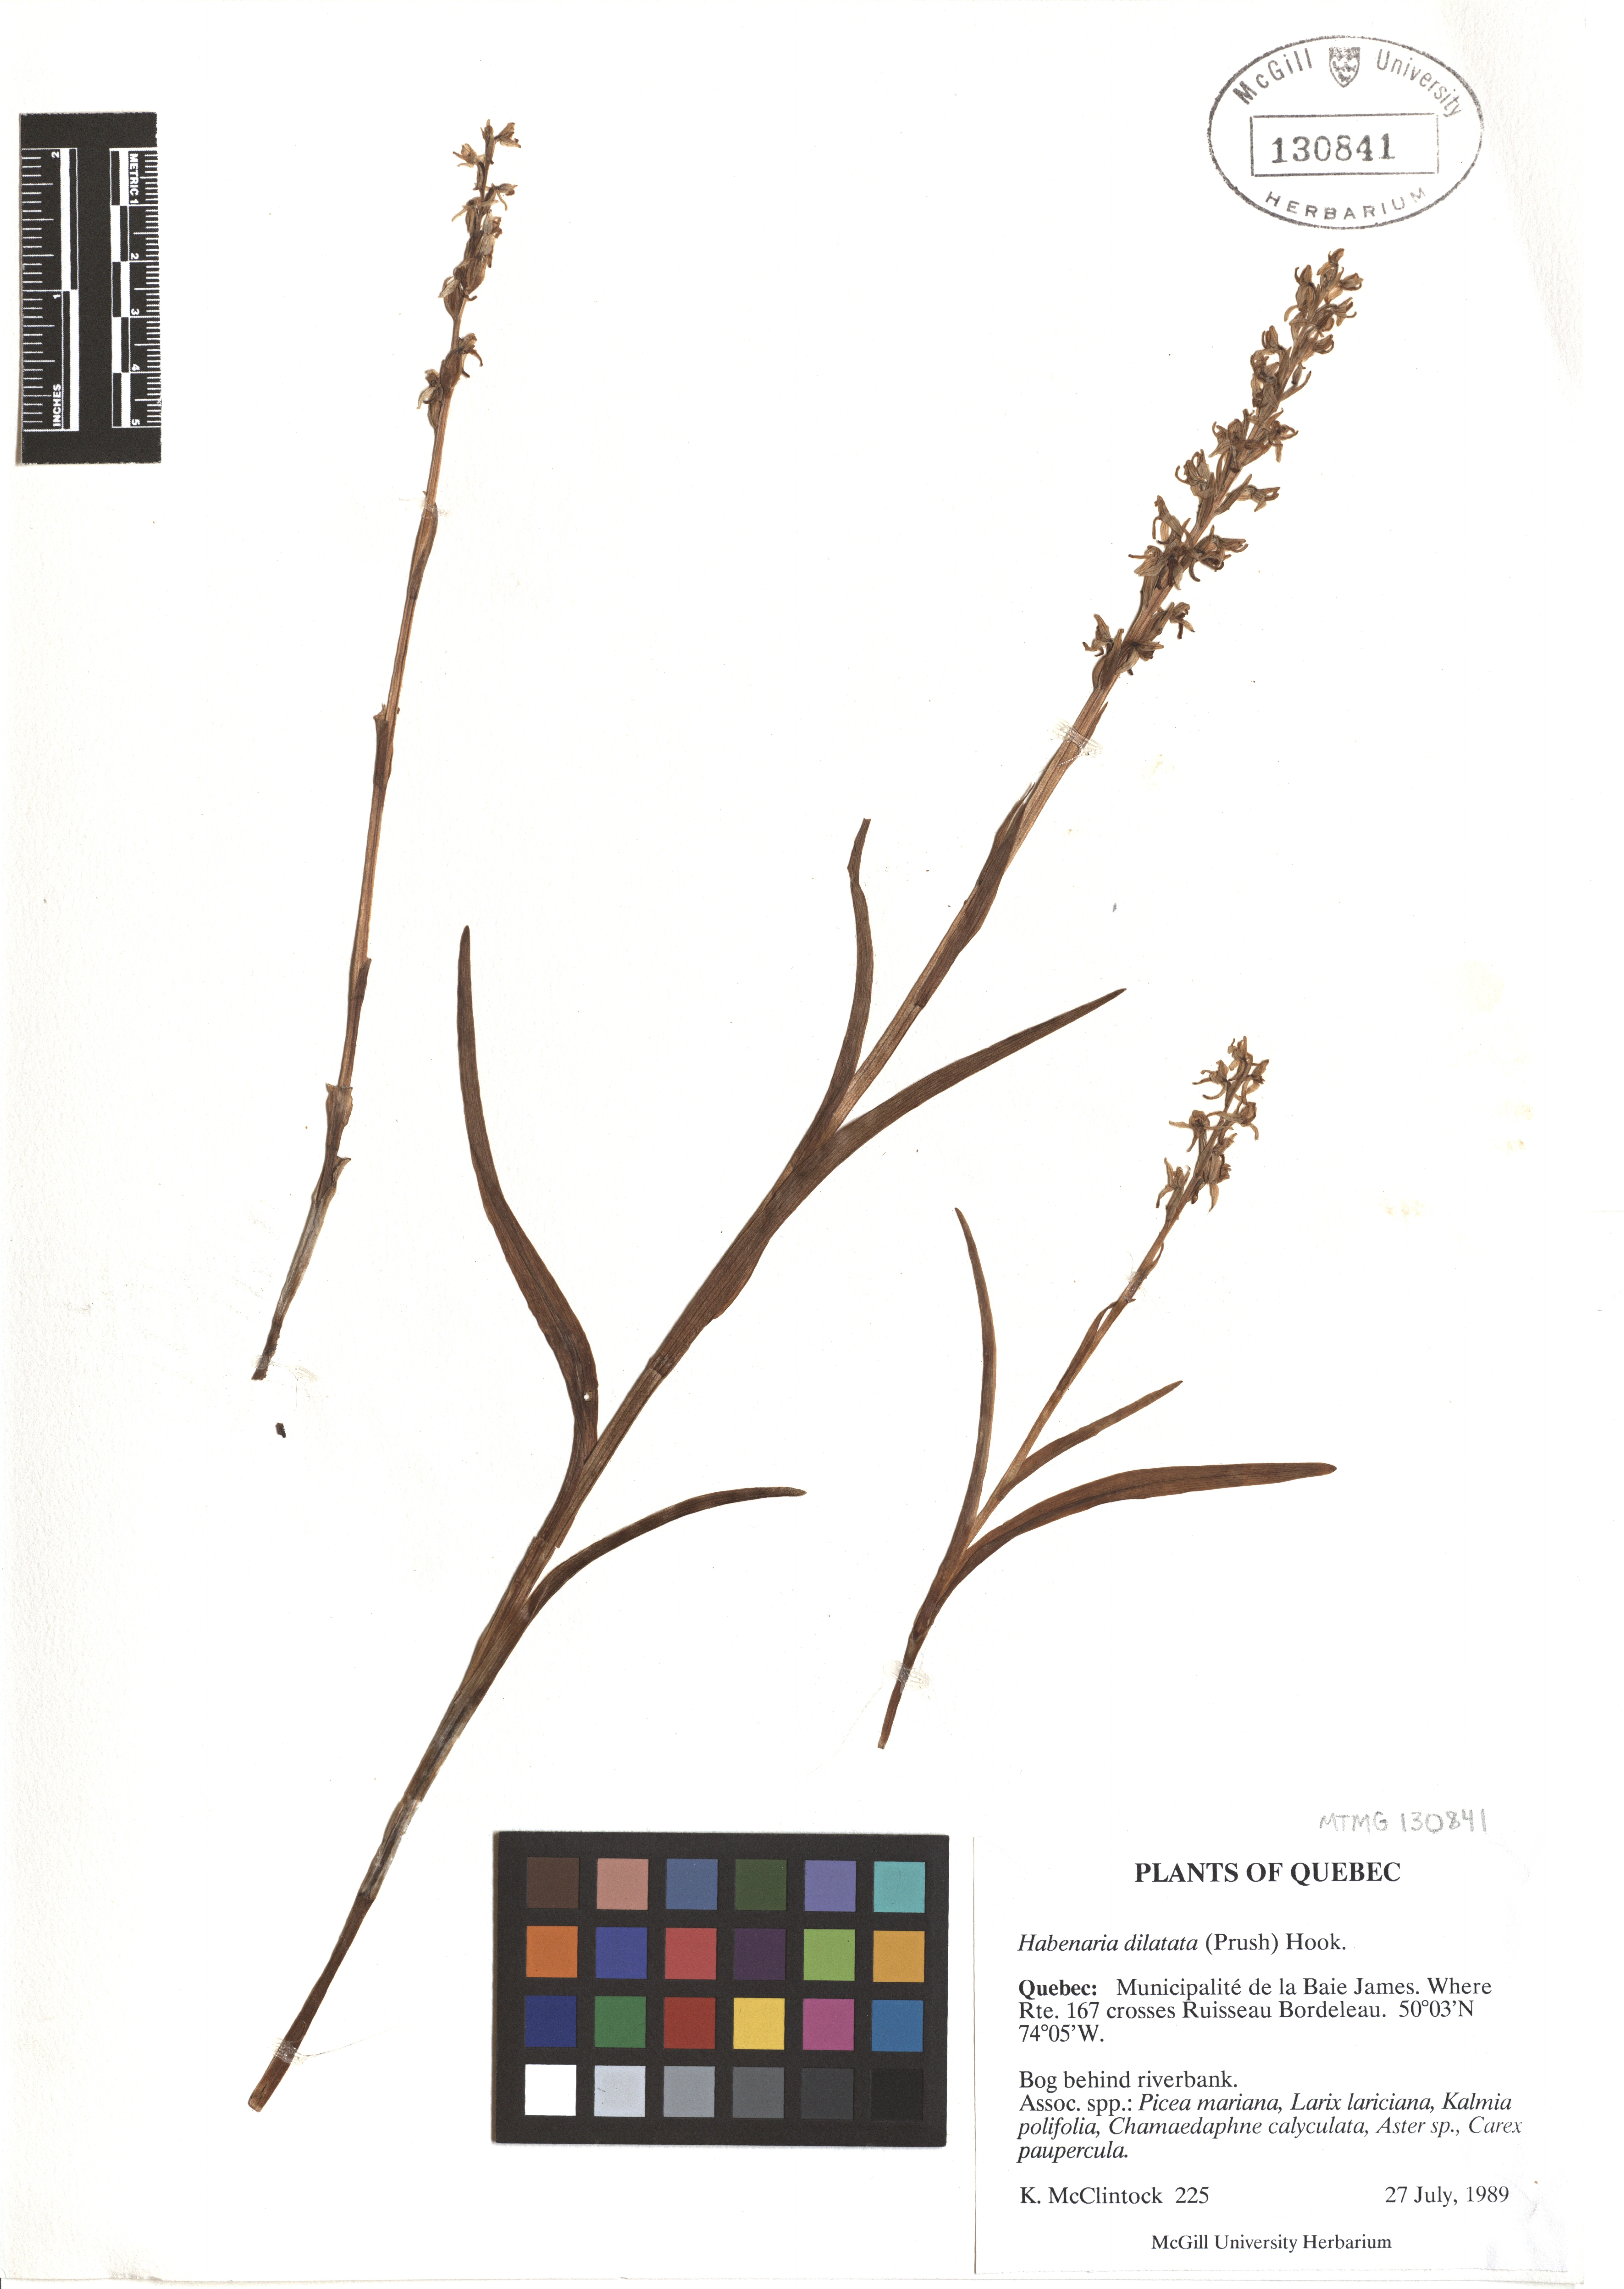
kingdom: Plantae
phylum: Tracheophyta
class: Liliopsida
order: Asparagales
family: Orchidaceae
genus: Platanthera
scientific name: Platanthera dilatata
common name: Bog candles
